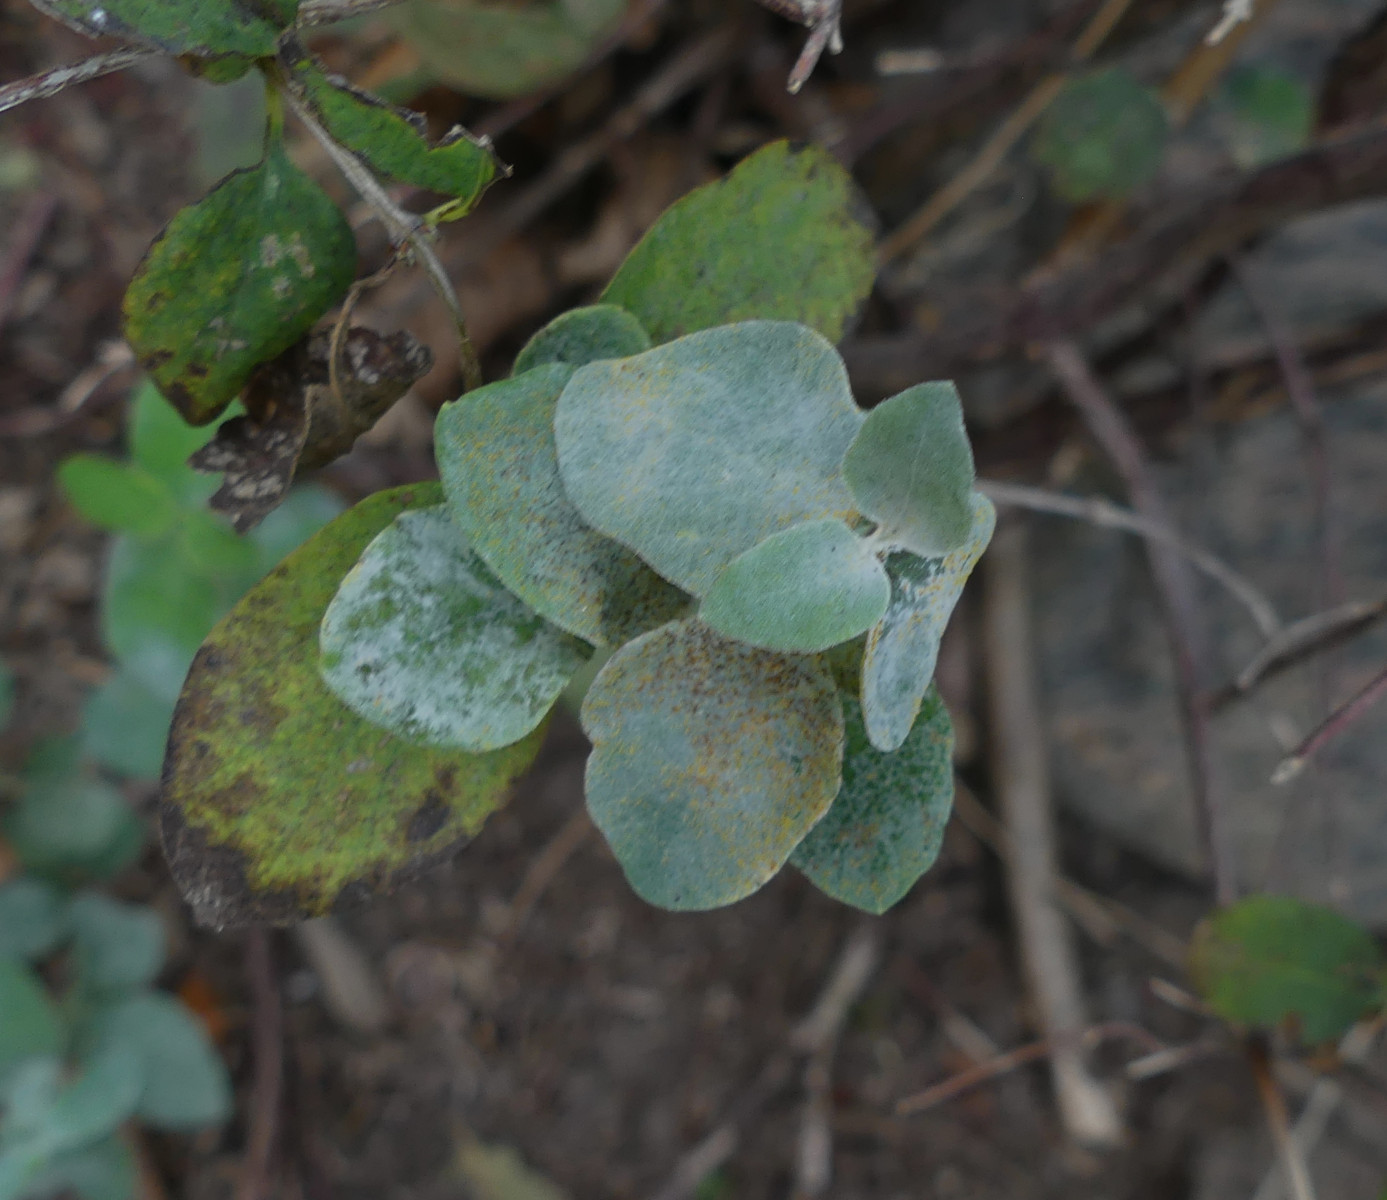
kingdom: Fungi
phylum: Ascomycota
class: Leotiomycetes
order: Helotiales
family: Erysiphaceae
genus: Erysiphe
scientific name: Erysiphe symphoricarpi
